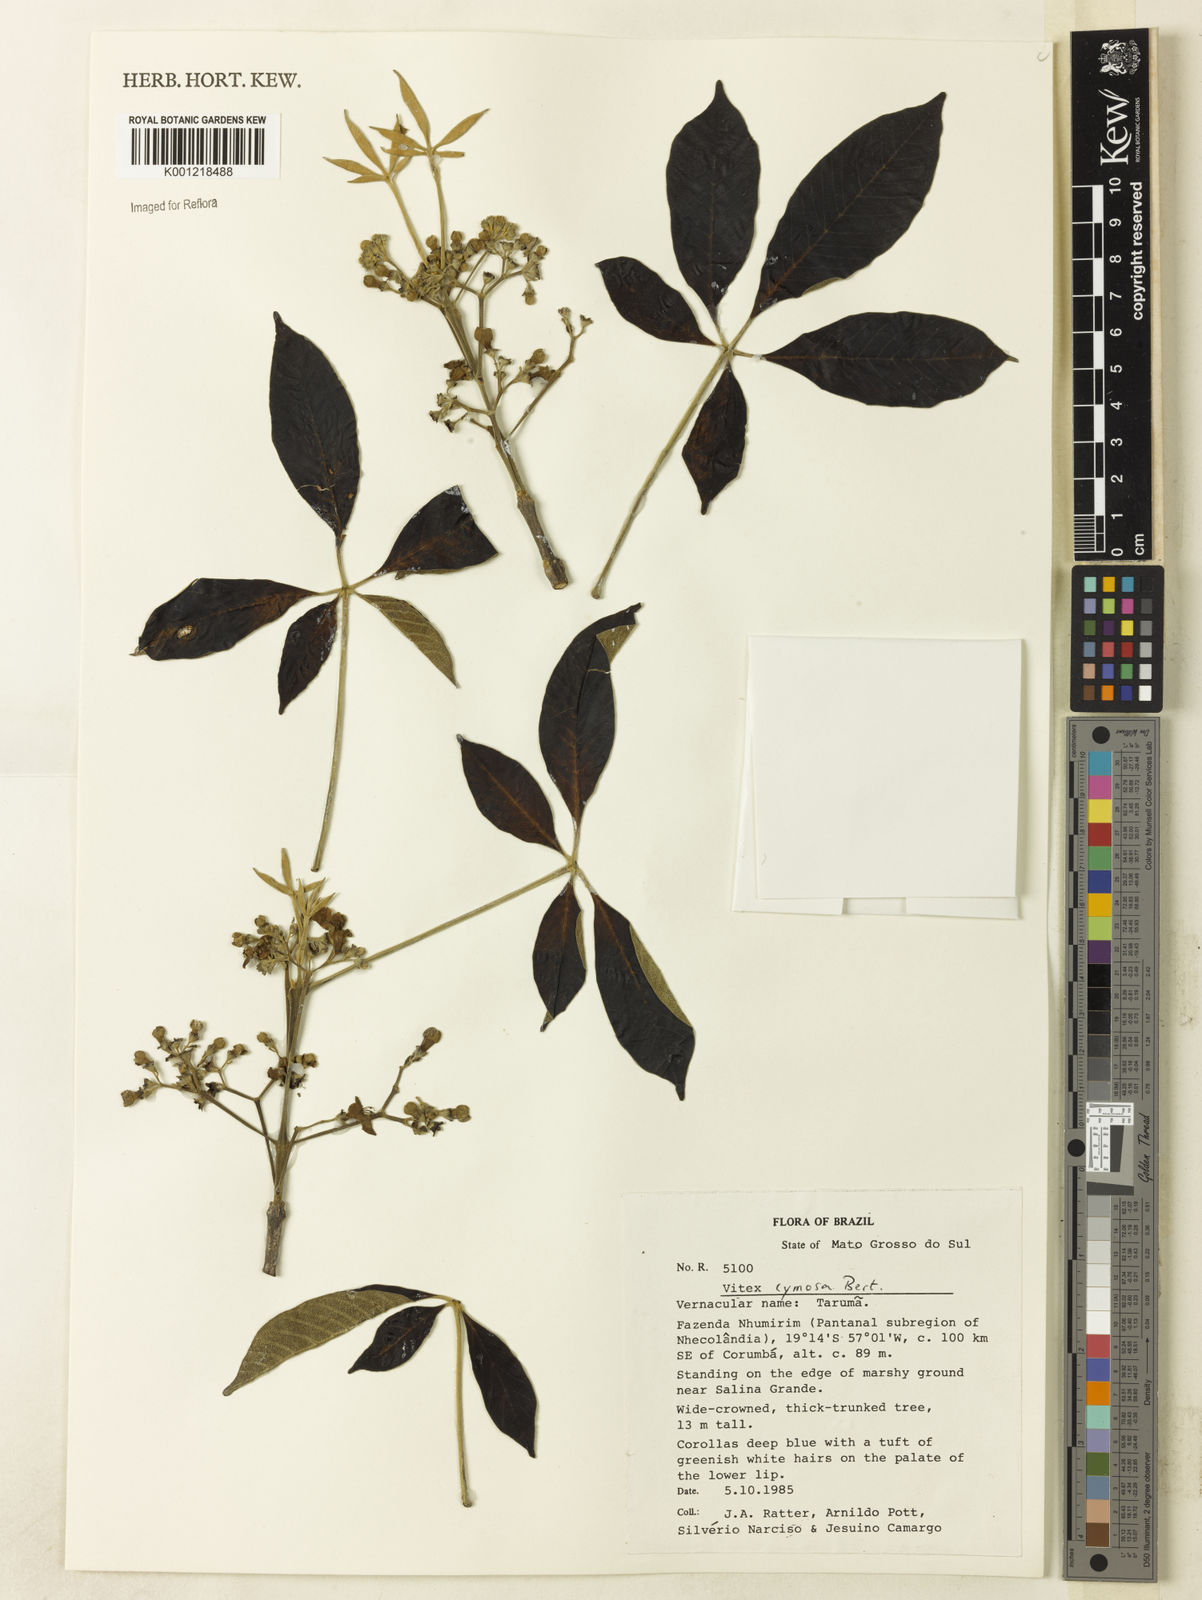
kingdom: Plantae
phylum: Tracheophyta
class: Magnoliopsida
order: Lamiales
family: Lamiaceae
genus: Vitex
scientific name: Vitex cymosa
